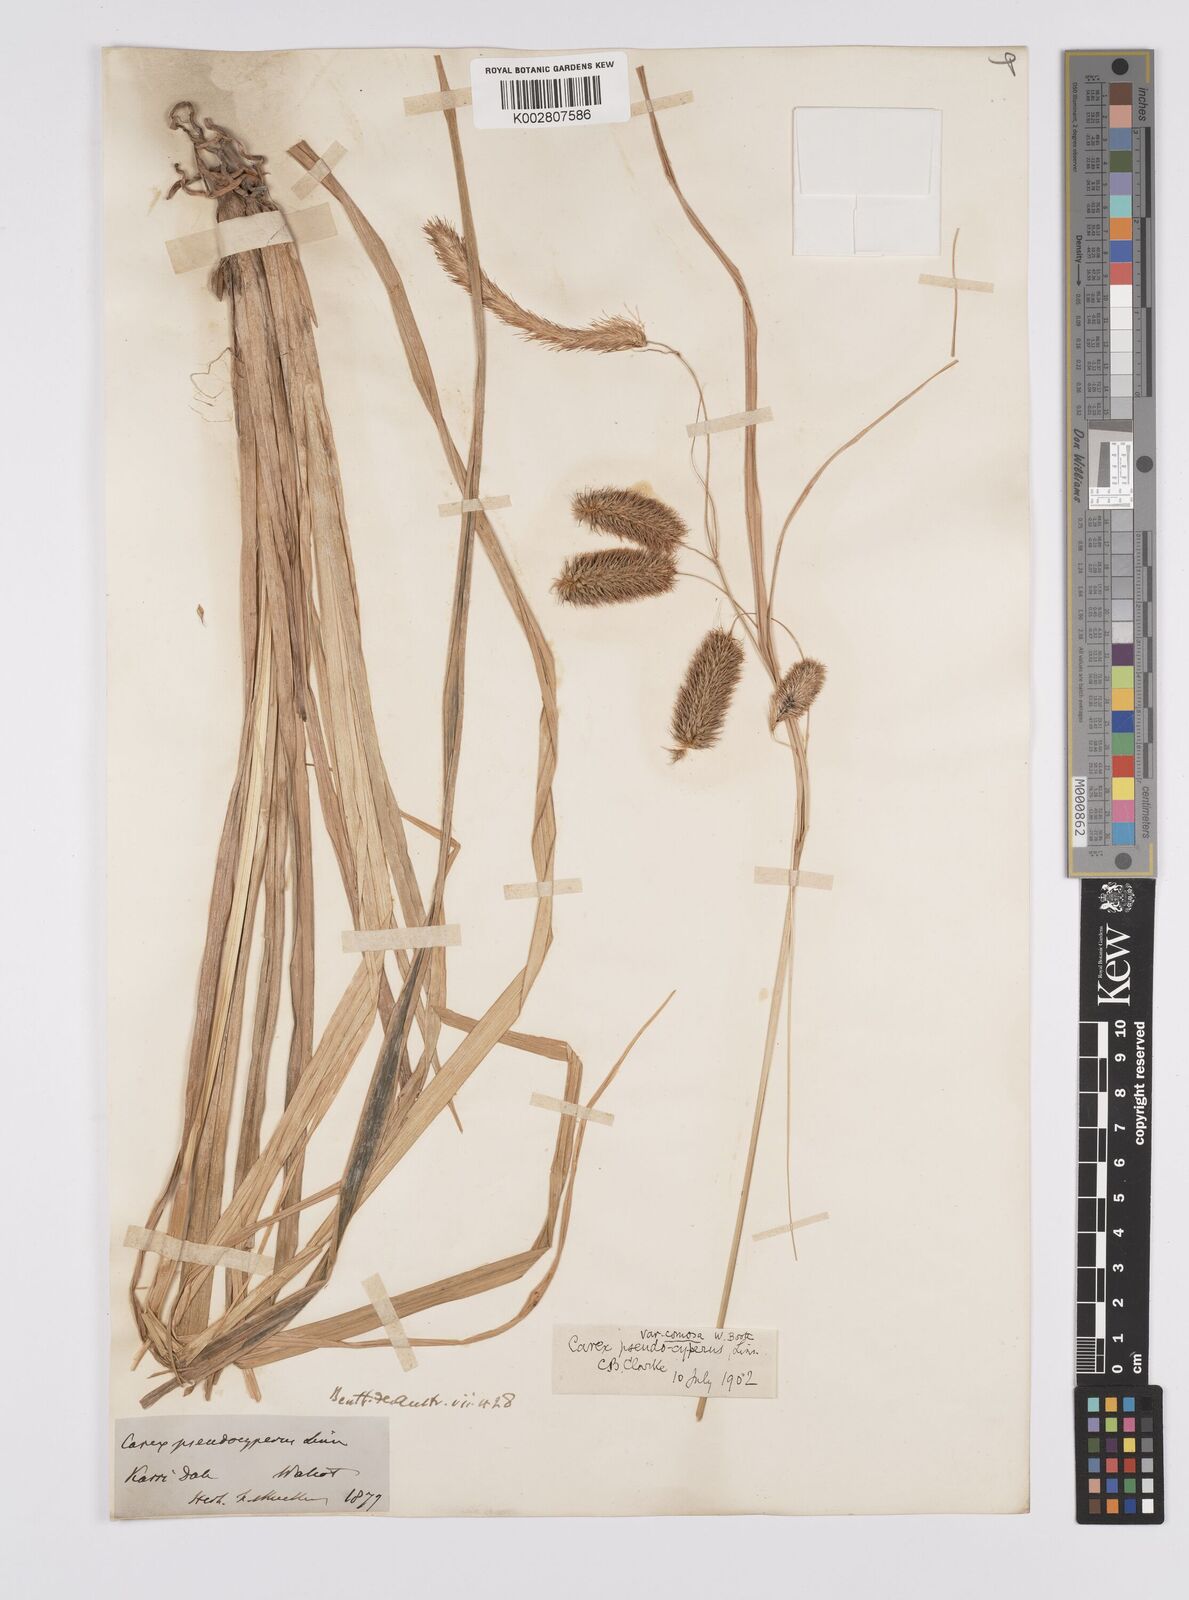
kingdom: Plantae
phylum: Tracheophyta
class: Liliopsida
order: Poales
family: Cyperaceae
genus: Carex
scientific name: Carex fascicularis
